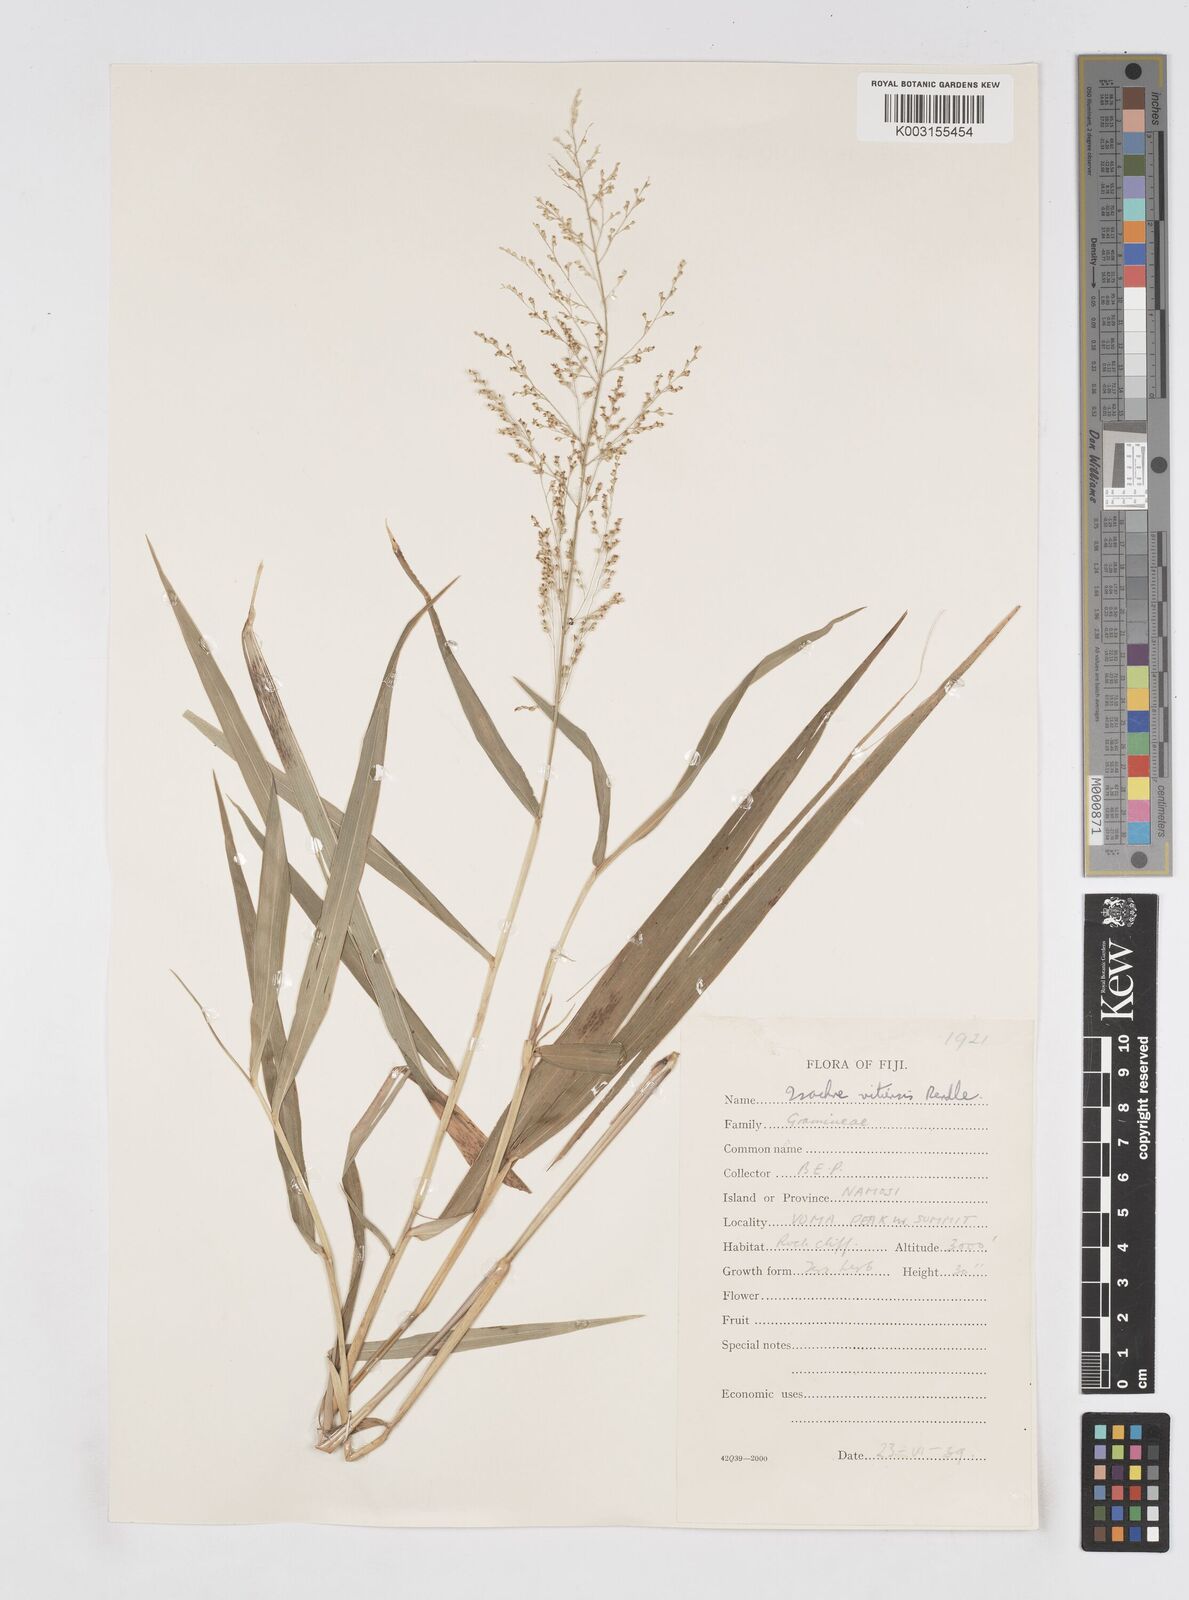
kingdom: Plantae
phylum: Tracheophyta
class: Liliopsida
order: Poales
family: Poaceae
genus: Isachne
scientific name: Isachne vitiensis
